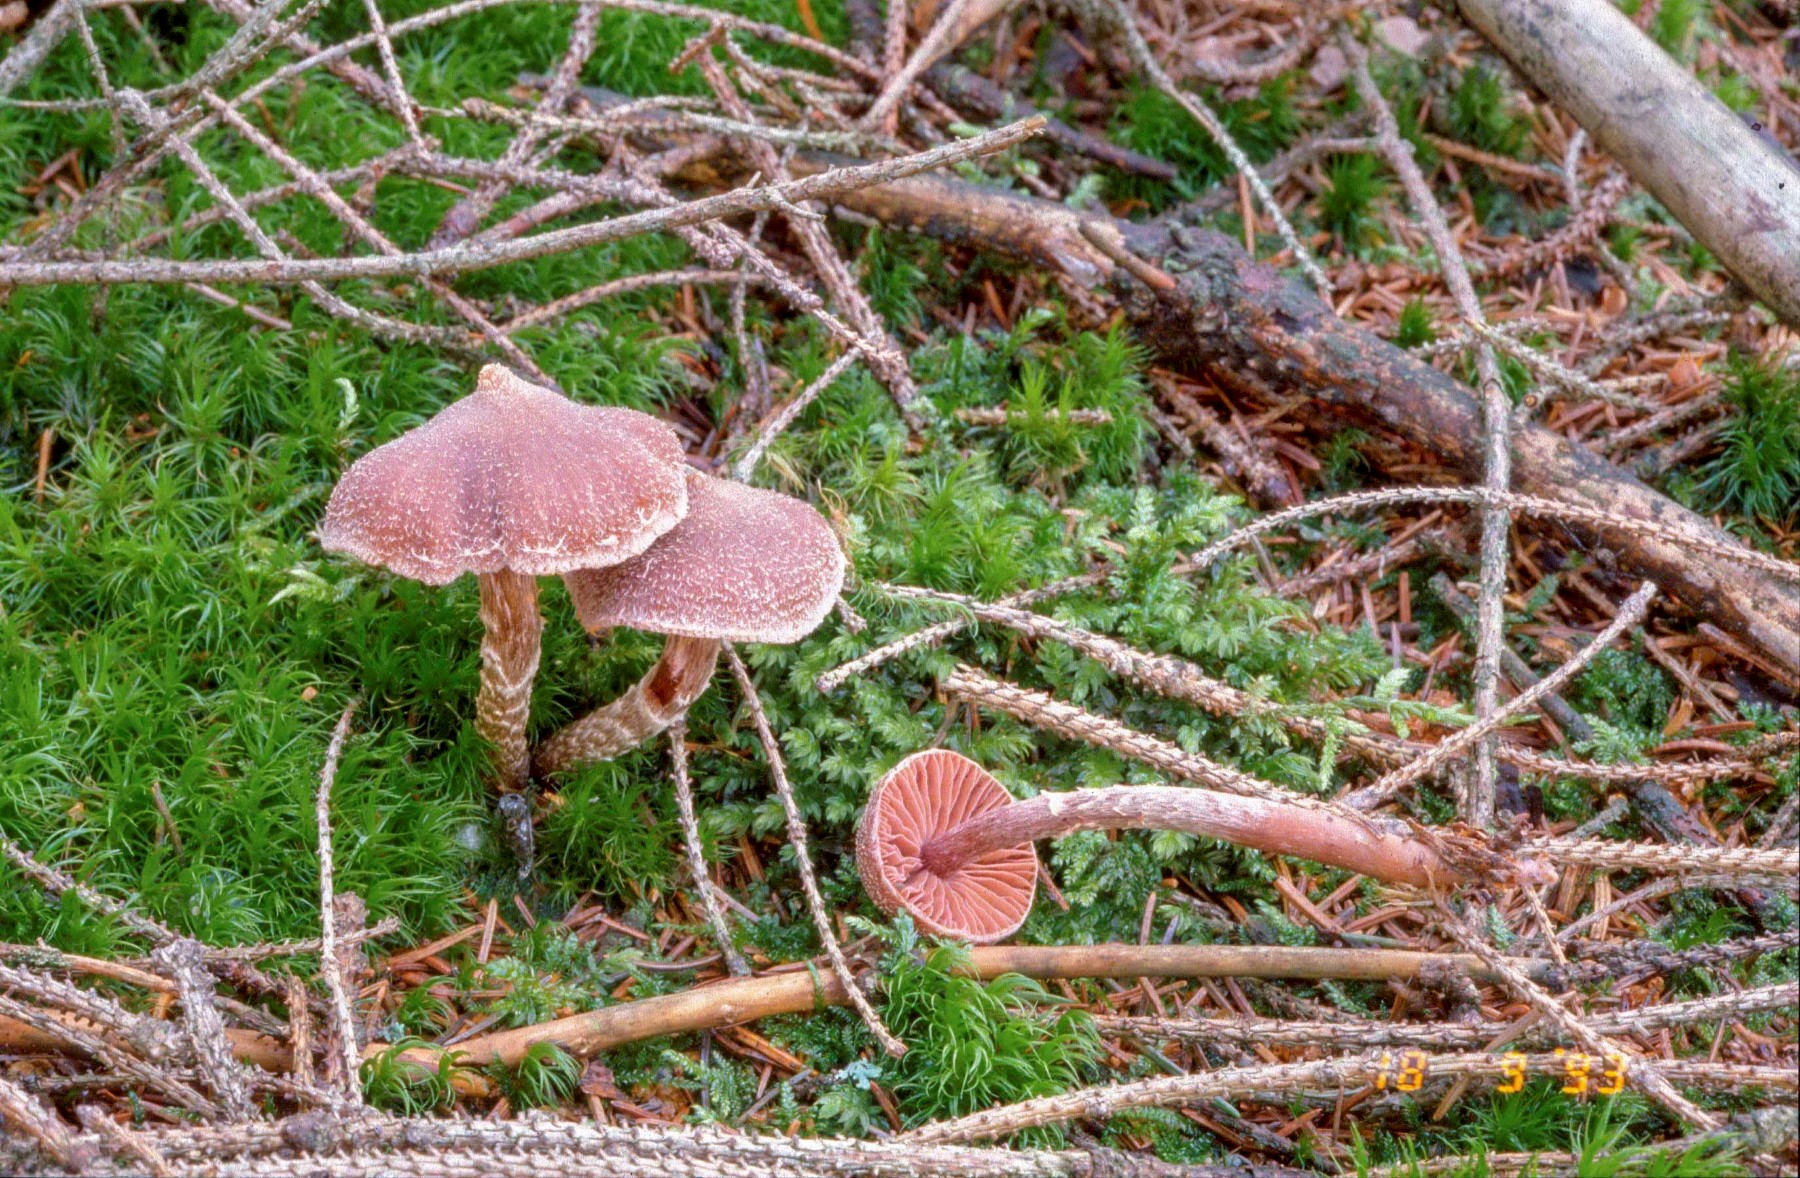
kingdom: Fungi
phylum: Basidiomycota
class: Agaricomycetes
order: Agaricales
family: Cortinariaceae
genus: Cortinarius
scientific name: Cortinarius
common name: pelargonie-slørhat
